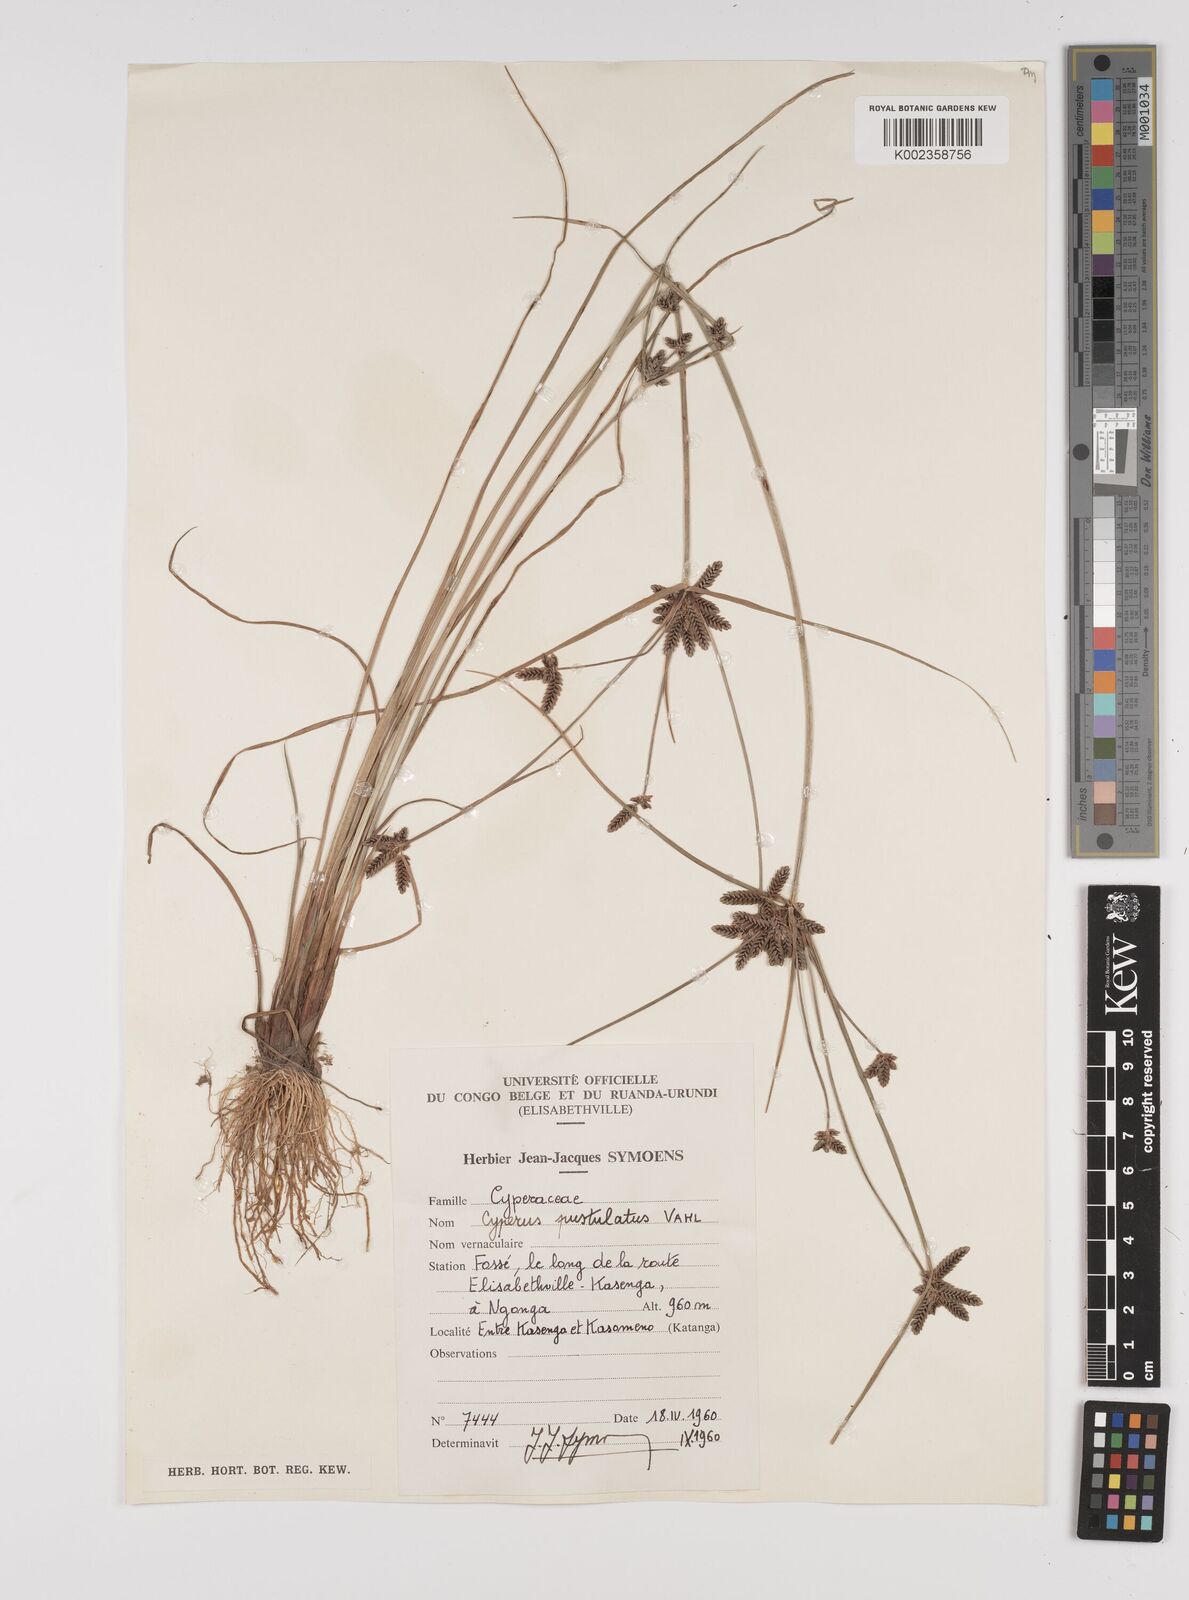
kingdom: Plantae
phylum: Tracheophyta
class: Liliopsida
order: Poales
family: Cyperaceae
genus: Cyperus
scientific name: Cyperus pustulatus
